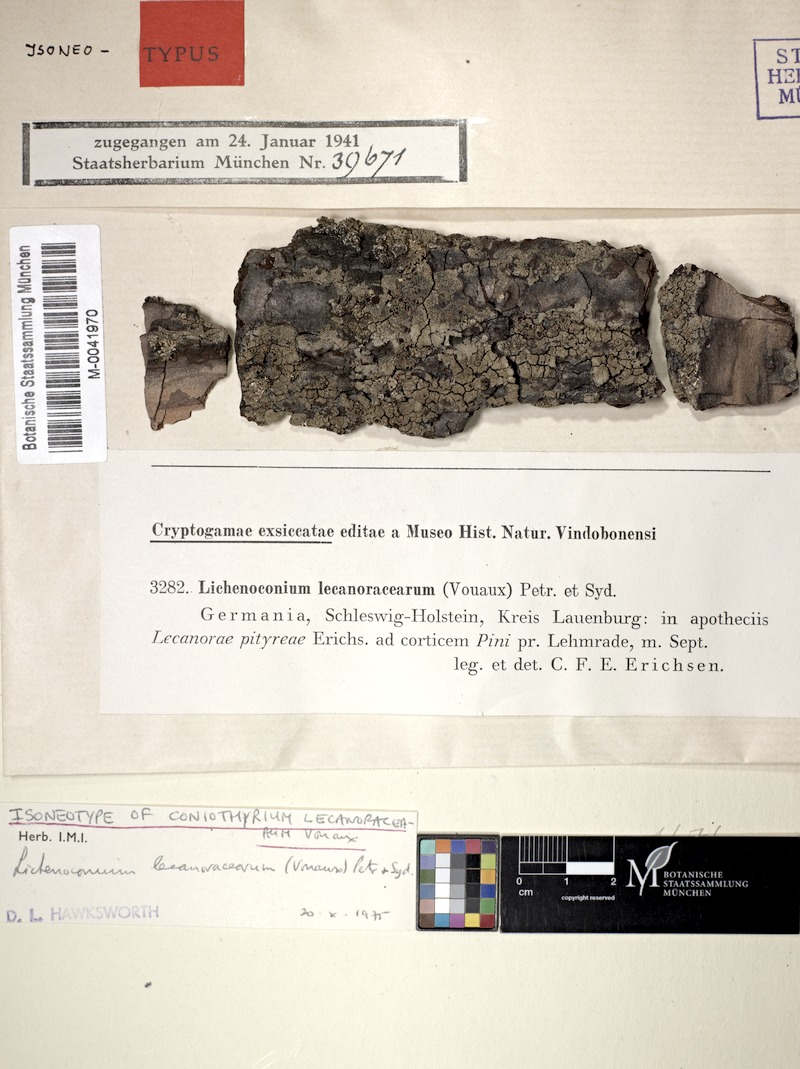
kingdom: Fungi
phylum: Ascomycota
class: Lecanoromycetes
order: Lecanorales
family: Lecanoraceae
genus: Straminella
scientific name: Straminella conizaeoides
